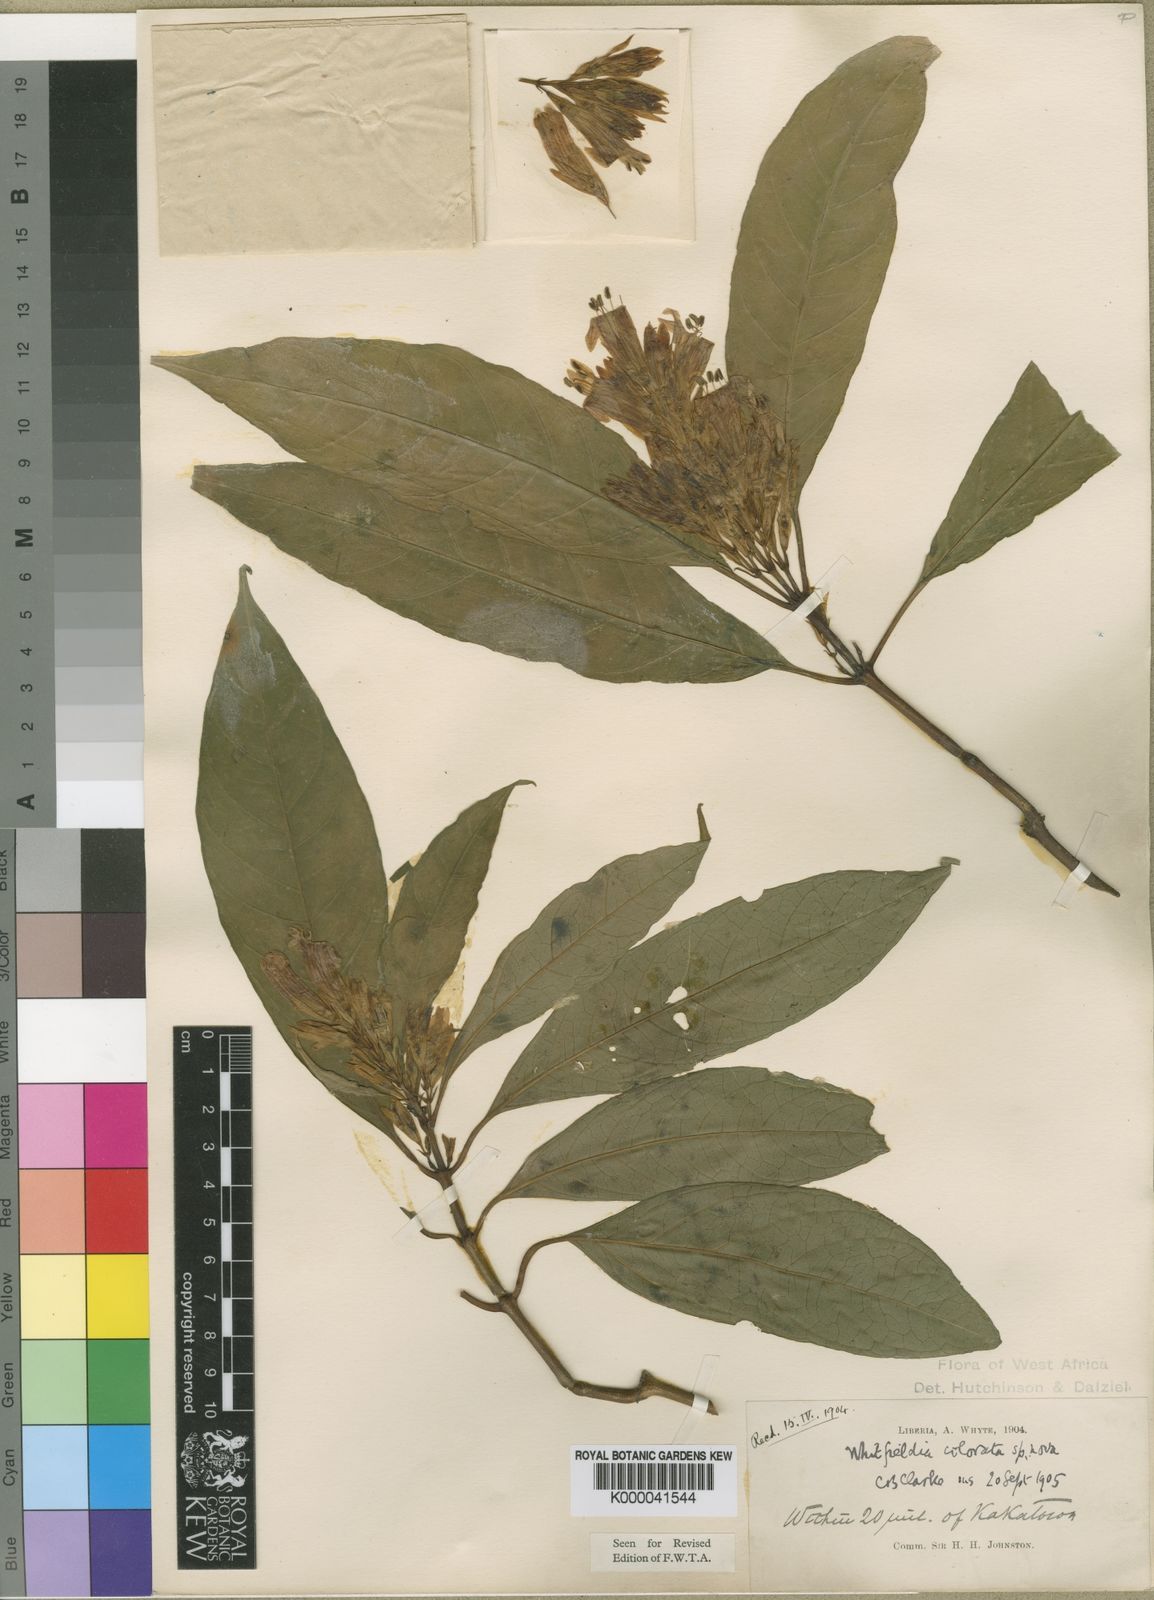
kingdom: Plantae
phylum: Tracheophyta
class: Magnoliopsida
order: Lamiales
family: Acanthaceae
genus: Whitfieldia
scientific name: Whitfieldia
